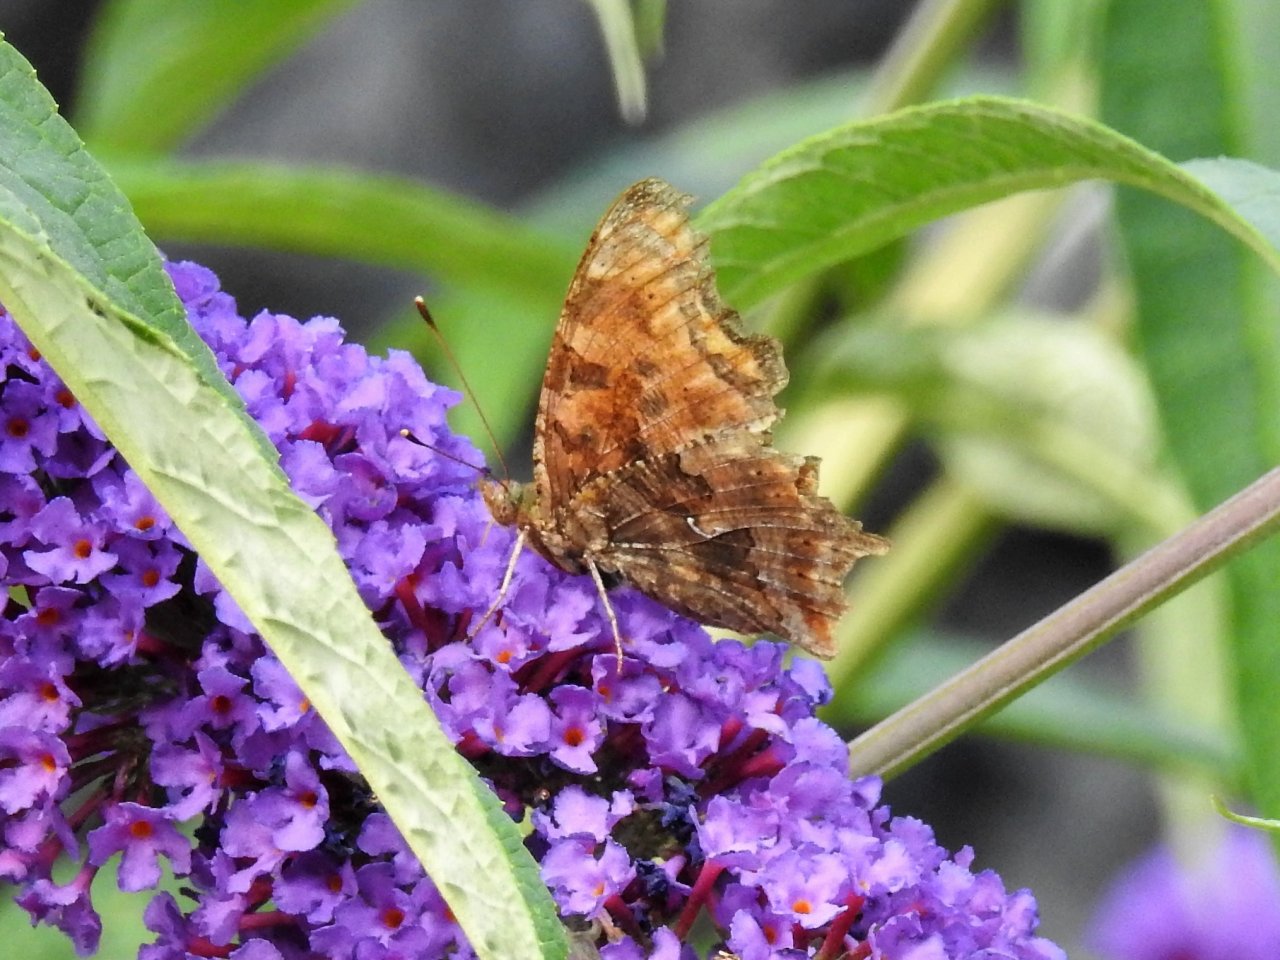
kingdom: Animalia
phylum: Arthropoda
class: Insecta
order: Lepidoptera
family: Nymphalidae
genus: Polygonia
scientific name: Polygonia comma
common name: Eastern Comma
